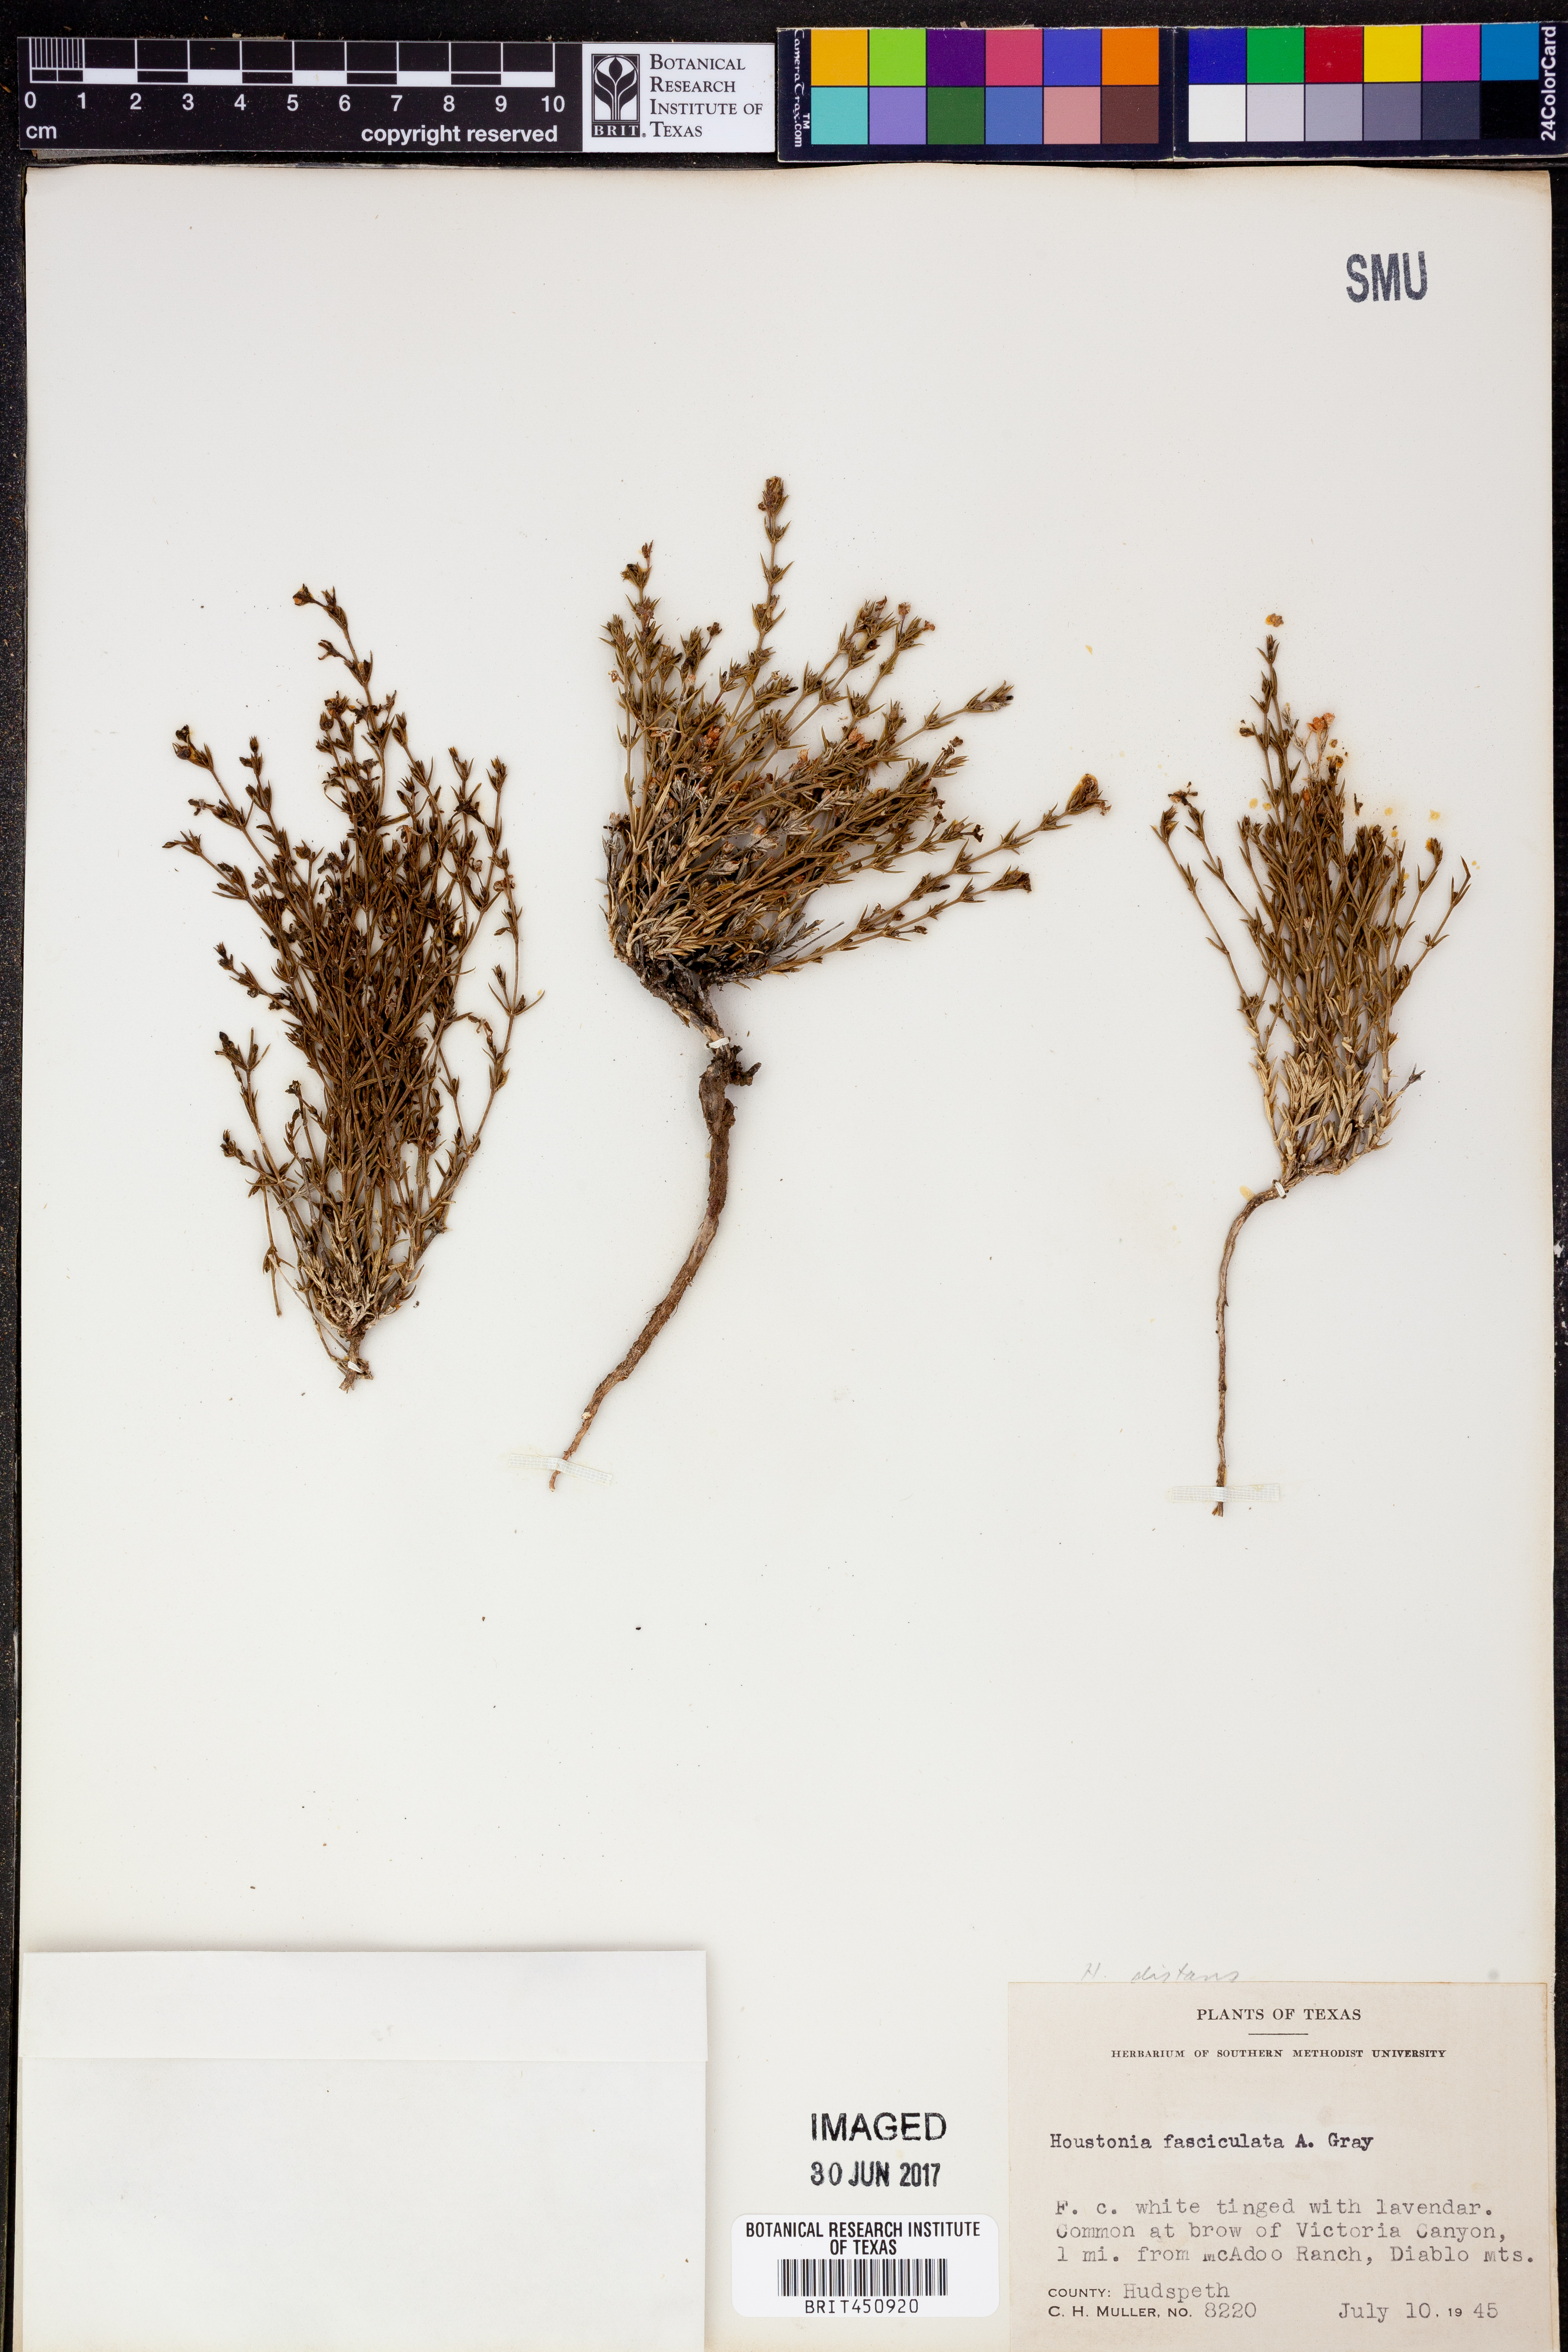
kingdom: Plantae
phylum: Tracheophyta
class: Magnoliopsida
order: Gentianales
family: Rubiaceae
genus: Arcytophyllum
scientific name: Arcytophyllum fasciculatum
